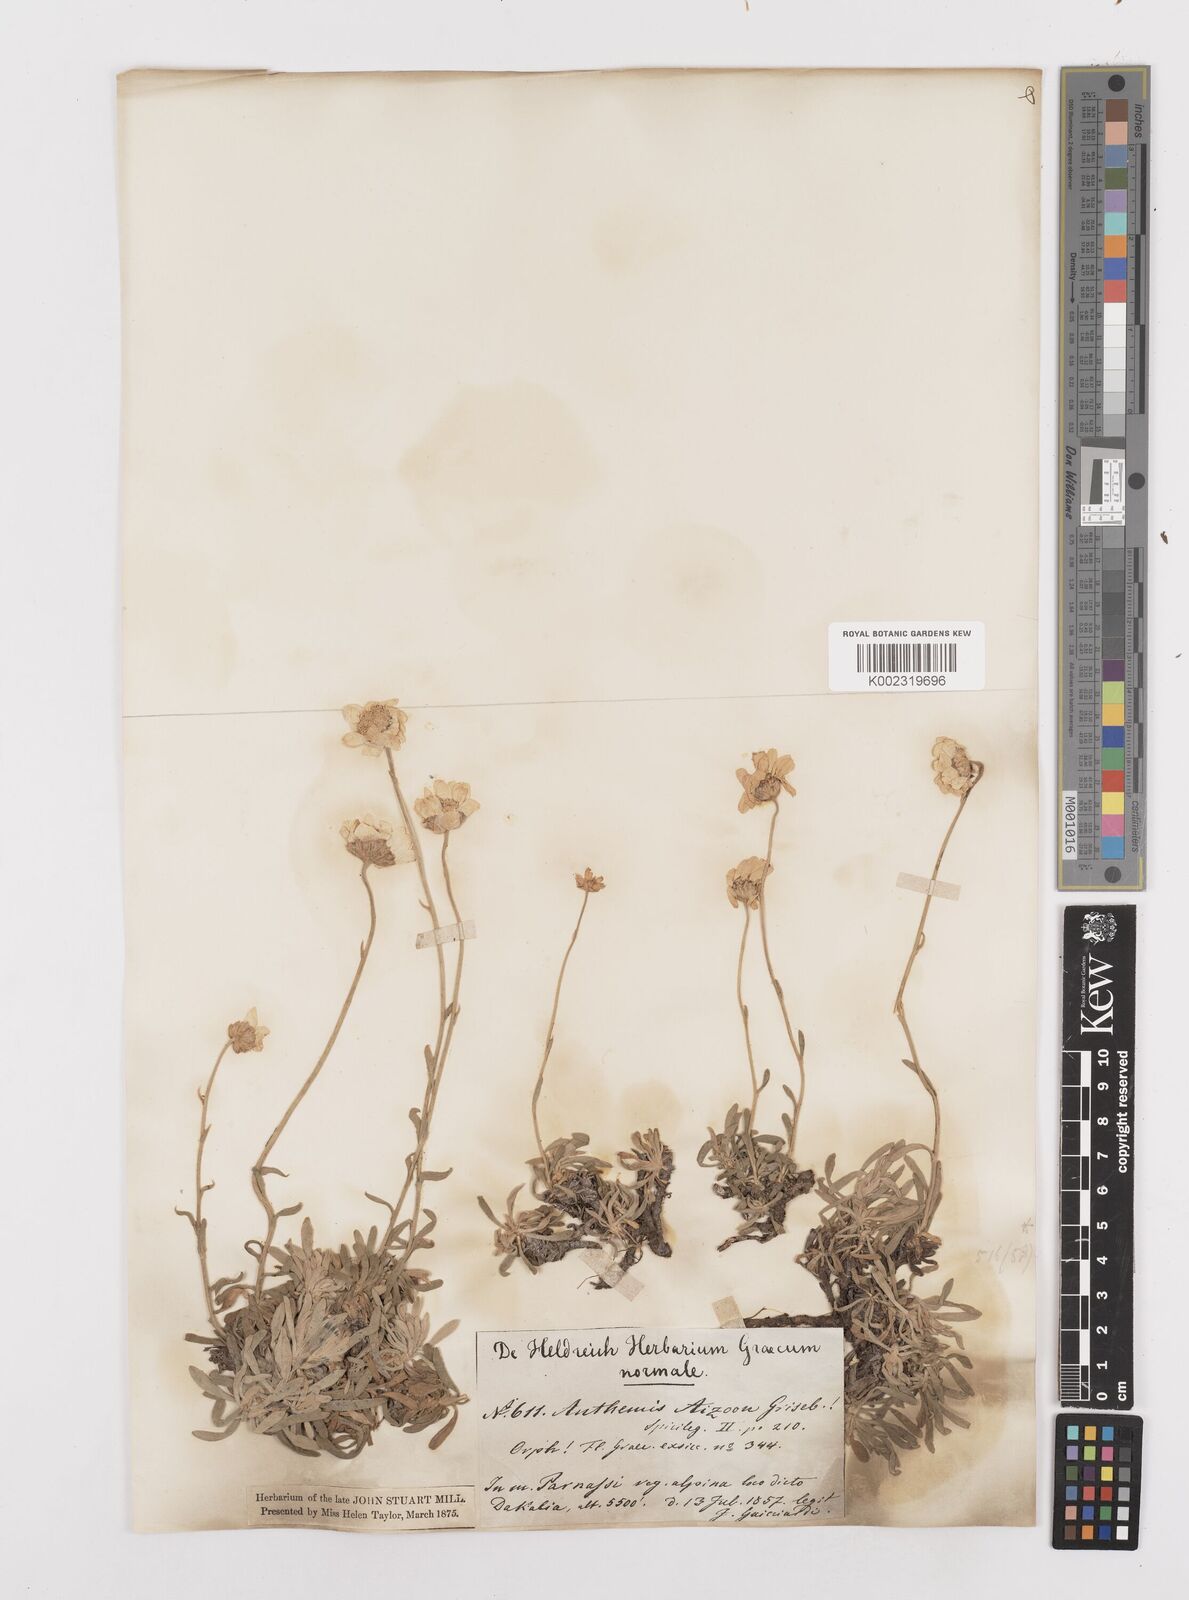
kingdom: Plantae
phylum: Tracheophyta
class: Magnoliopsida
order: Asterales
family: Asteraceae
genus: Achillea
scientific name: Achillea ageratifolia
